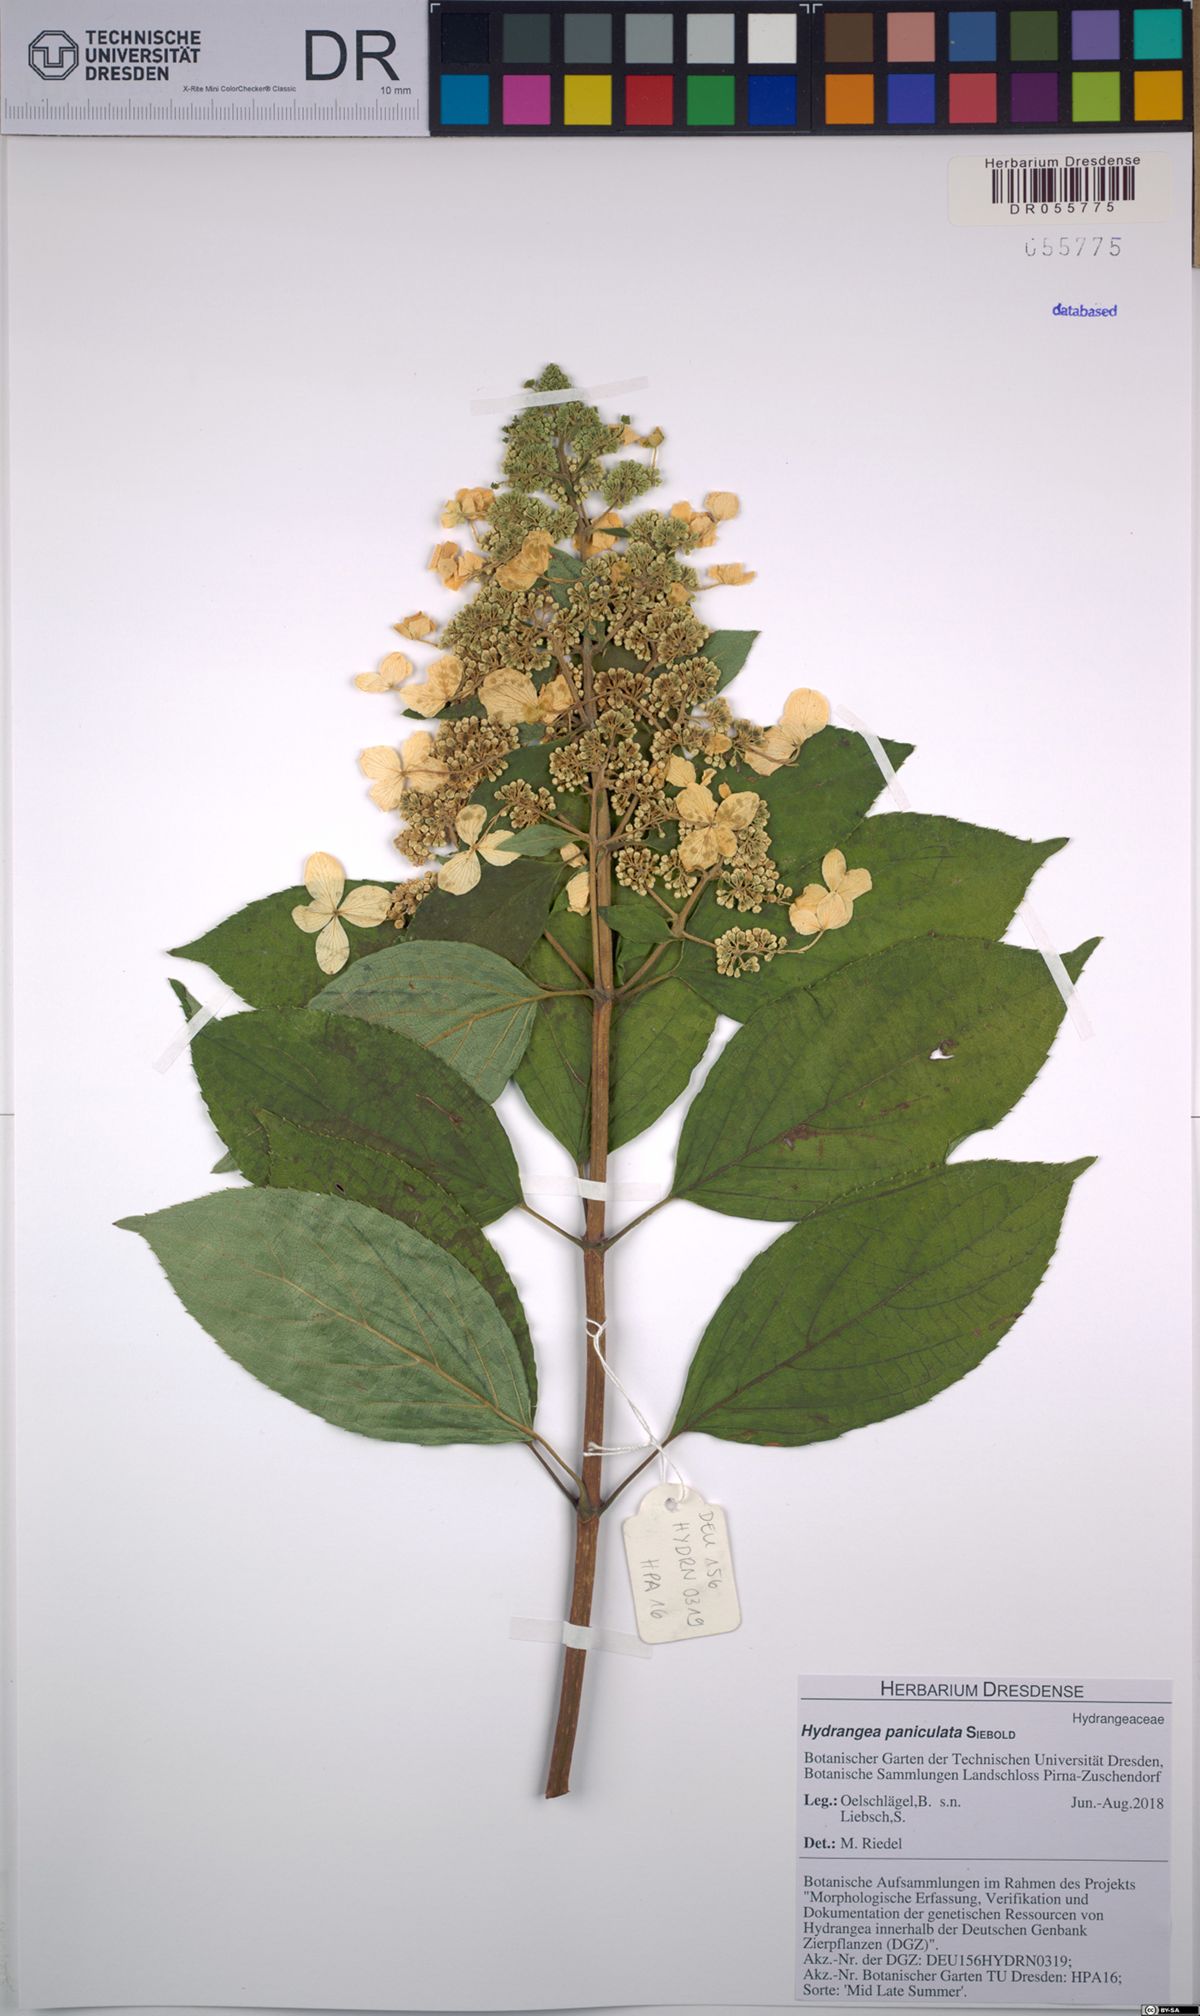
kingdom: Plantae
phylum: Tracheophyta
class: Magnoliopsida
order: Cornales
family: Hydrangeaceae
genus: Hydrangea
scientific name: Hydrangea paniculata
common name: Panicled hydrangea
